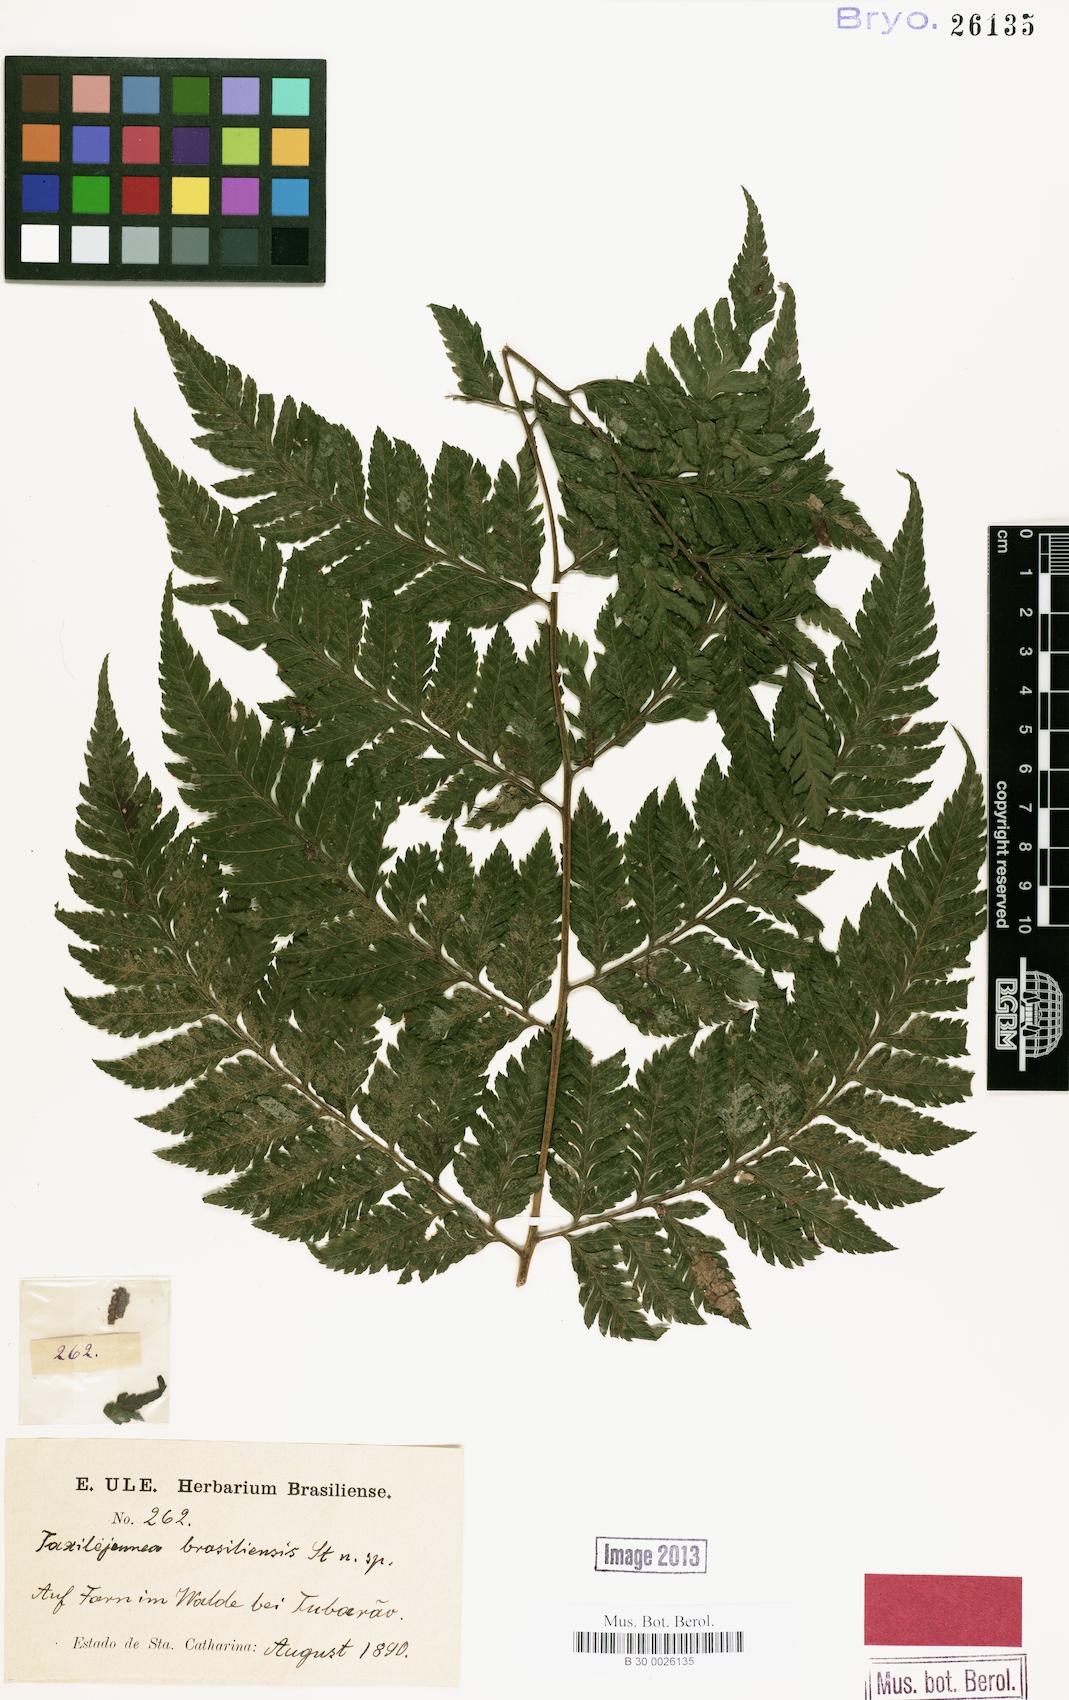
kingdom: Plantae
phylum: Marchantiophyta
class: Jungermanniopsida
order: Porellales
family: Lejeuneaceae
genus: Lejeunea
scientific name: Lejeunea glaucescens
